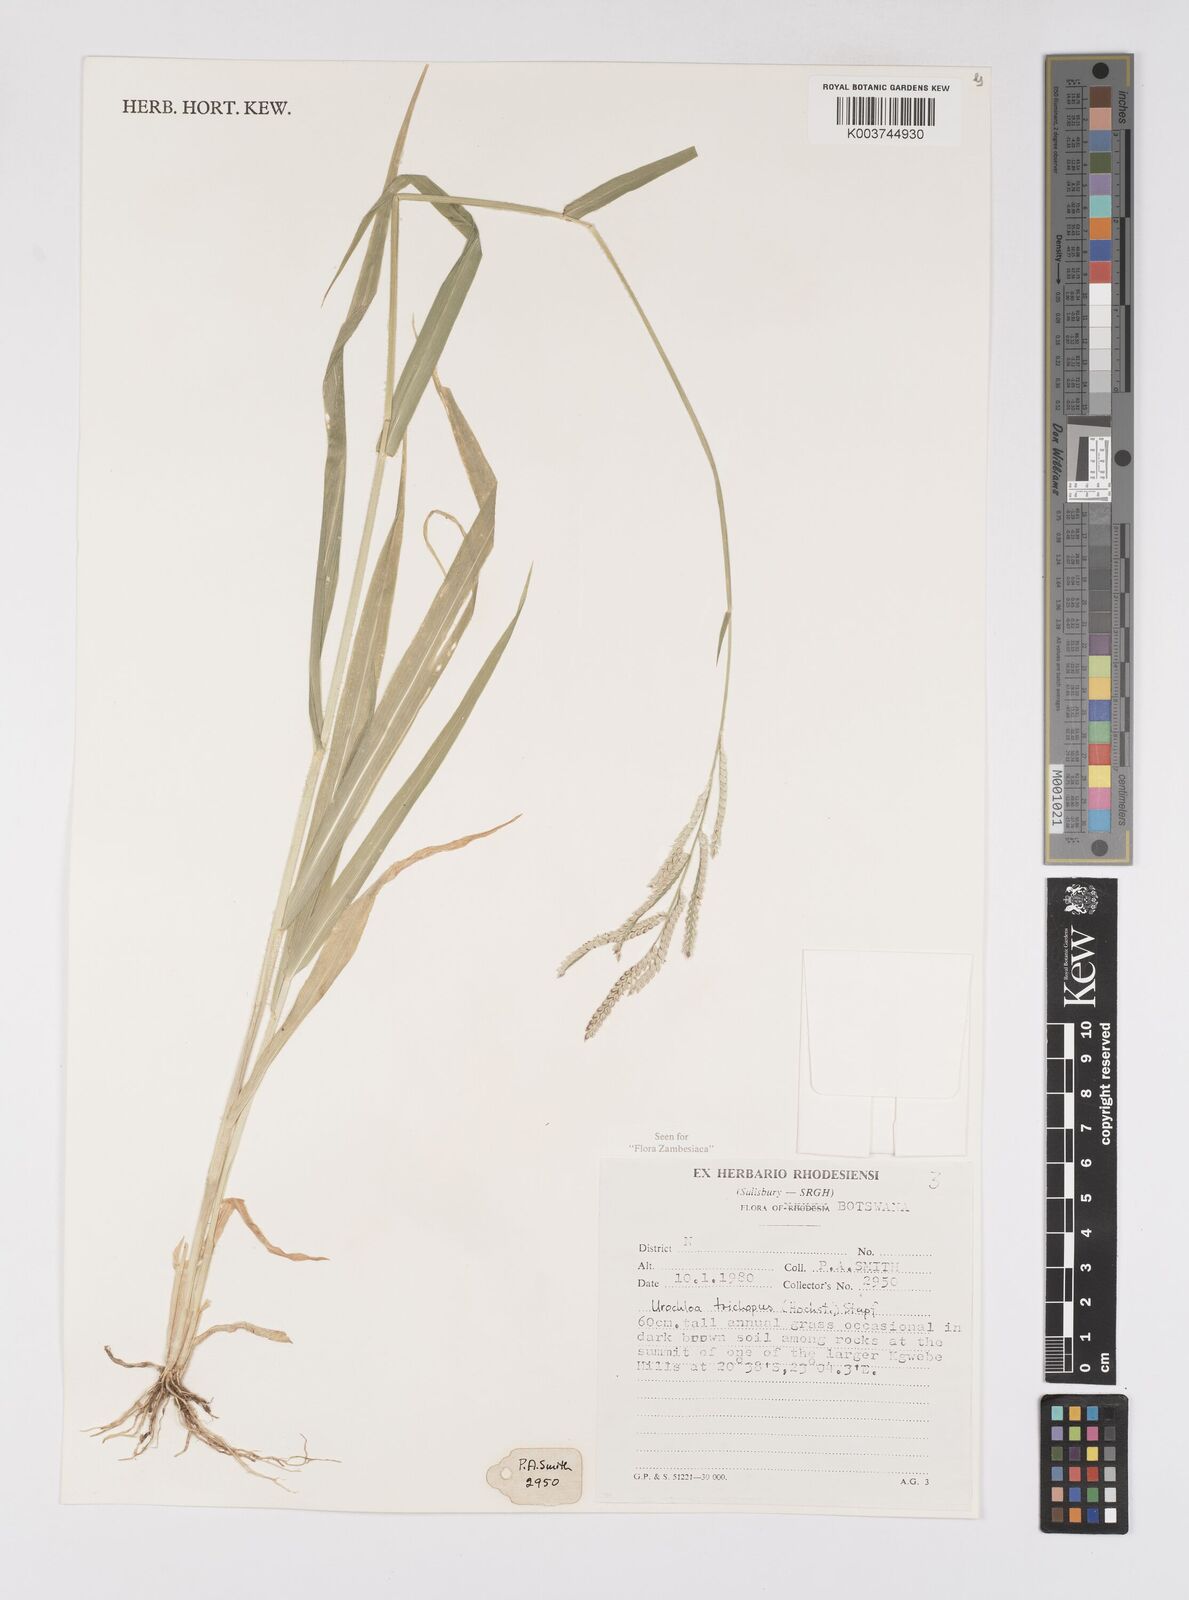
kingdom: Plantae
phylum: Tracheophyta
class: Liliopsida
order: Poales
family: Poaceae
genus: Urochloa
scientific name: Urochloa trichopus
